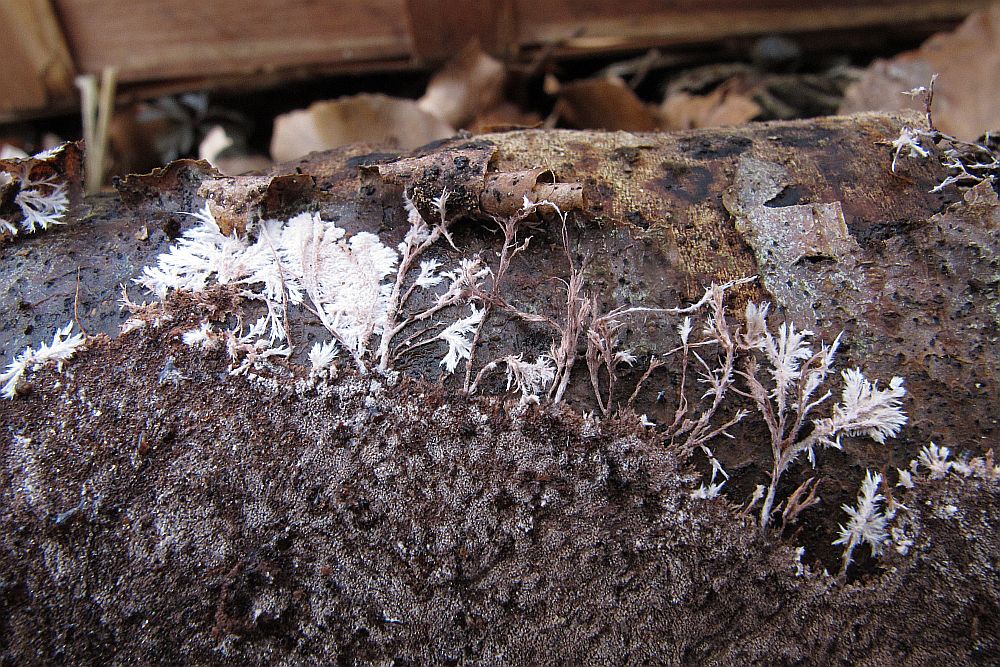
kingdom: Fungi
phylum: Basidiomycota
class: Agaricomycetes
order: Polyporales
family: Steccherinaceae
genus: Steccherinum
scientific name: Steccherinum fimbriatum
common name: trådet skønpig
